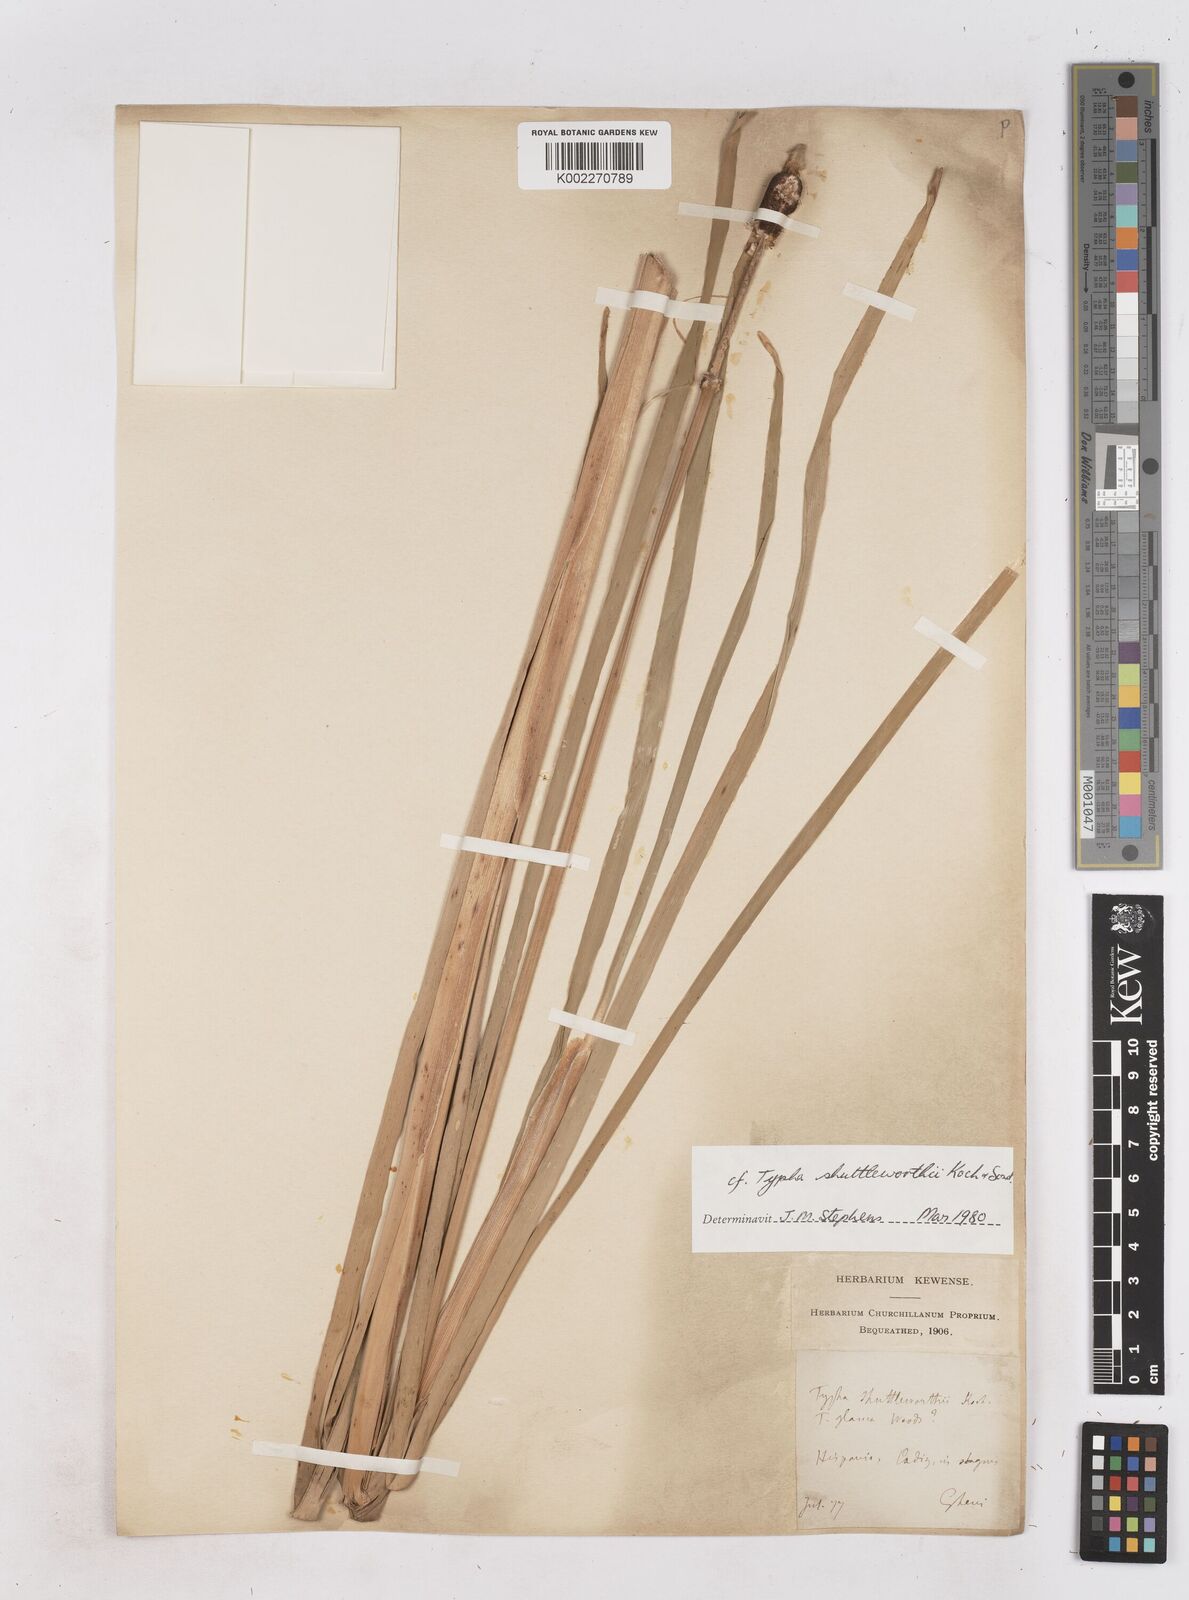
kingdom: Plantae
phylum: Tracheophyta
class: Liliopsida
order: Poales
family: Typhaceae
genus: Typha
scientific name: Typha shuttleworthii
